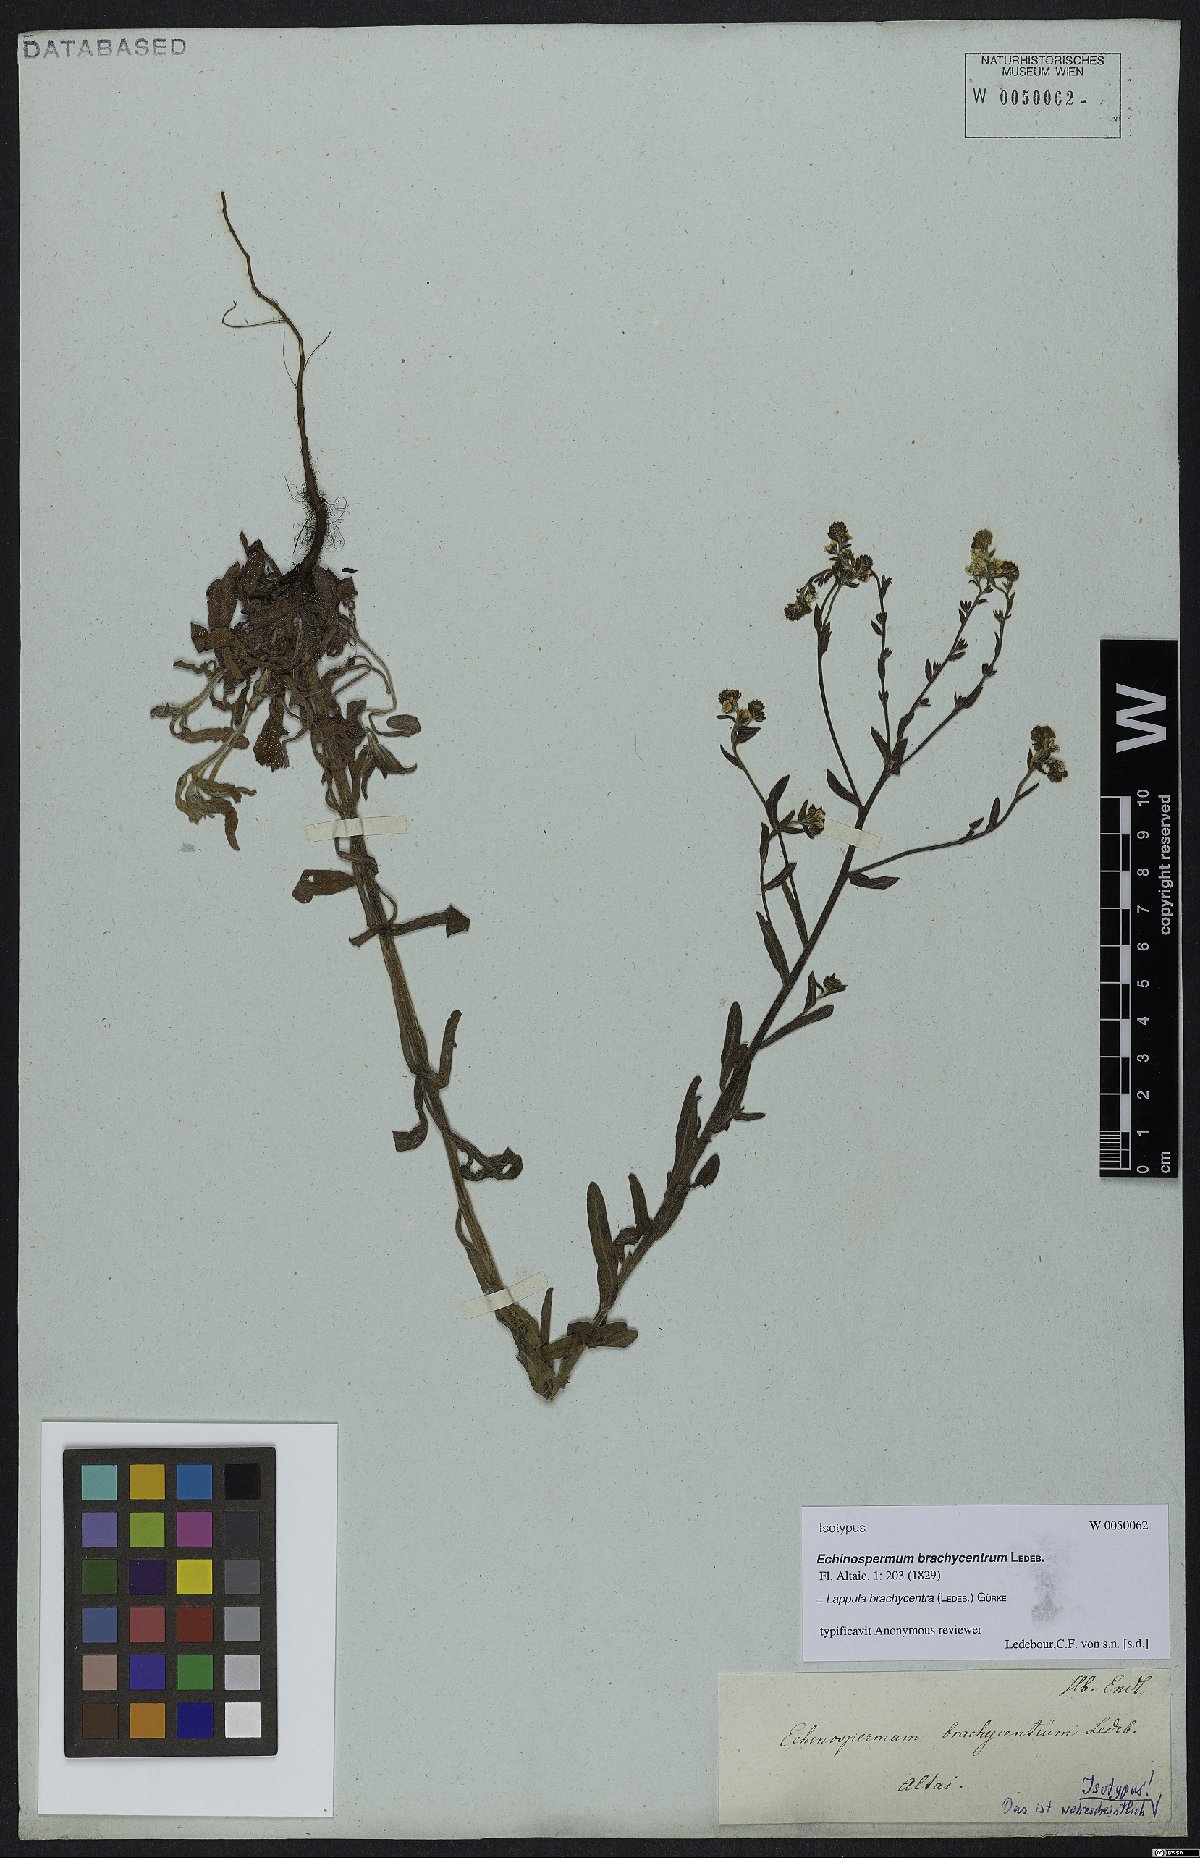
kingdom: Plantae
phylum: Tracheophyta
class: Magnoliopsida
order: Boraginales
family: Boraginaceae
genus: Lappula
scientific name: Lappula brachycentra
